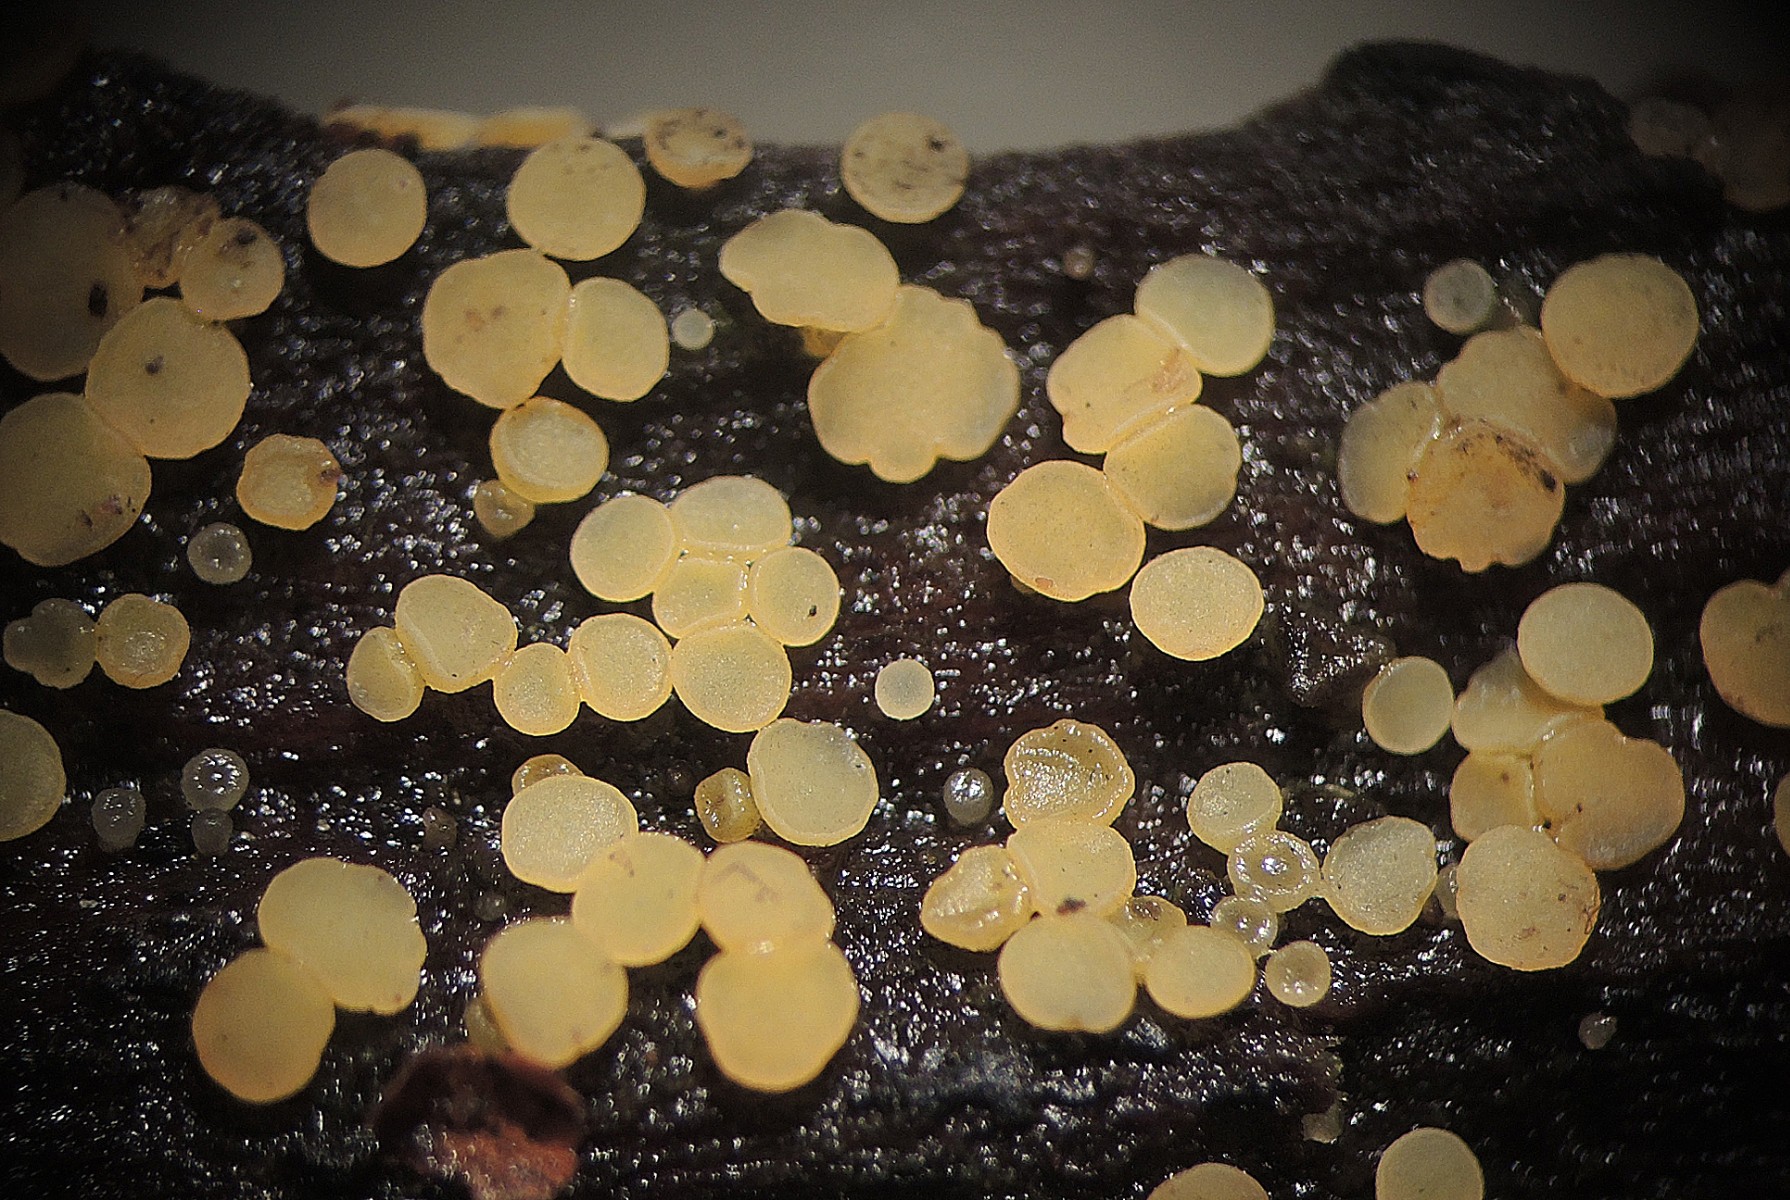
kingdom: Fungi
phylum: Ascomycota
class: Leotiomycetes
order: Helotiales
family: Helotiaceae
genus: Bisporella
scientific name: Bisporella subpallida
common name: lys snitskive
